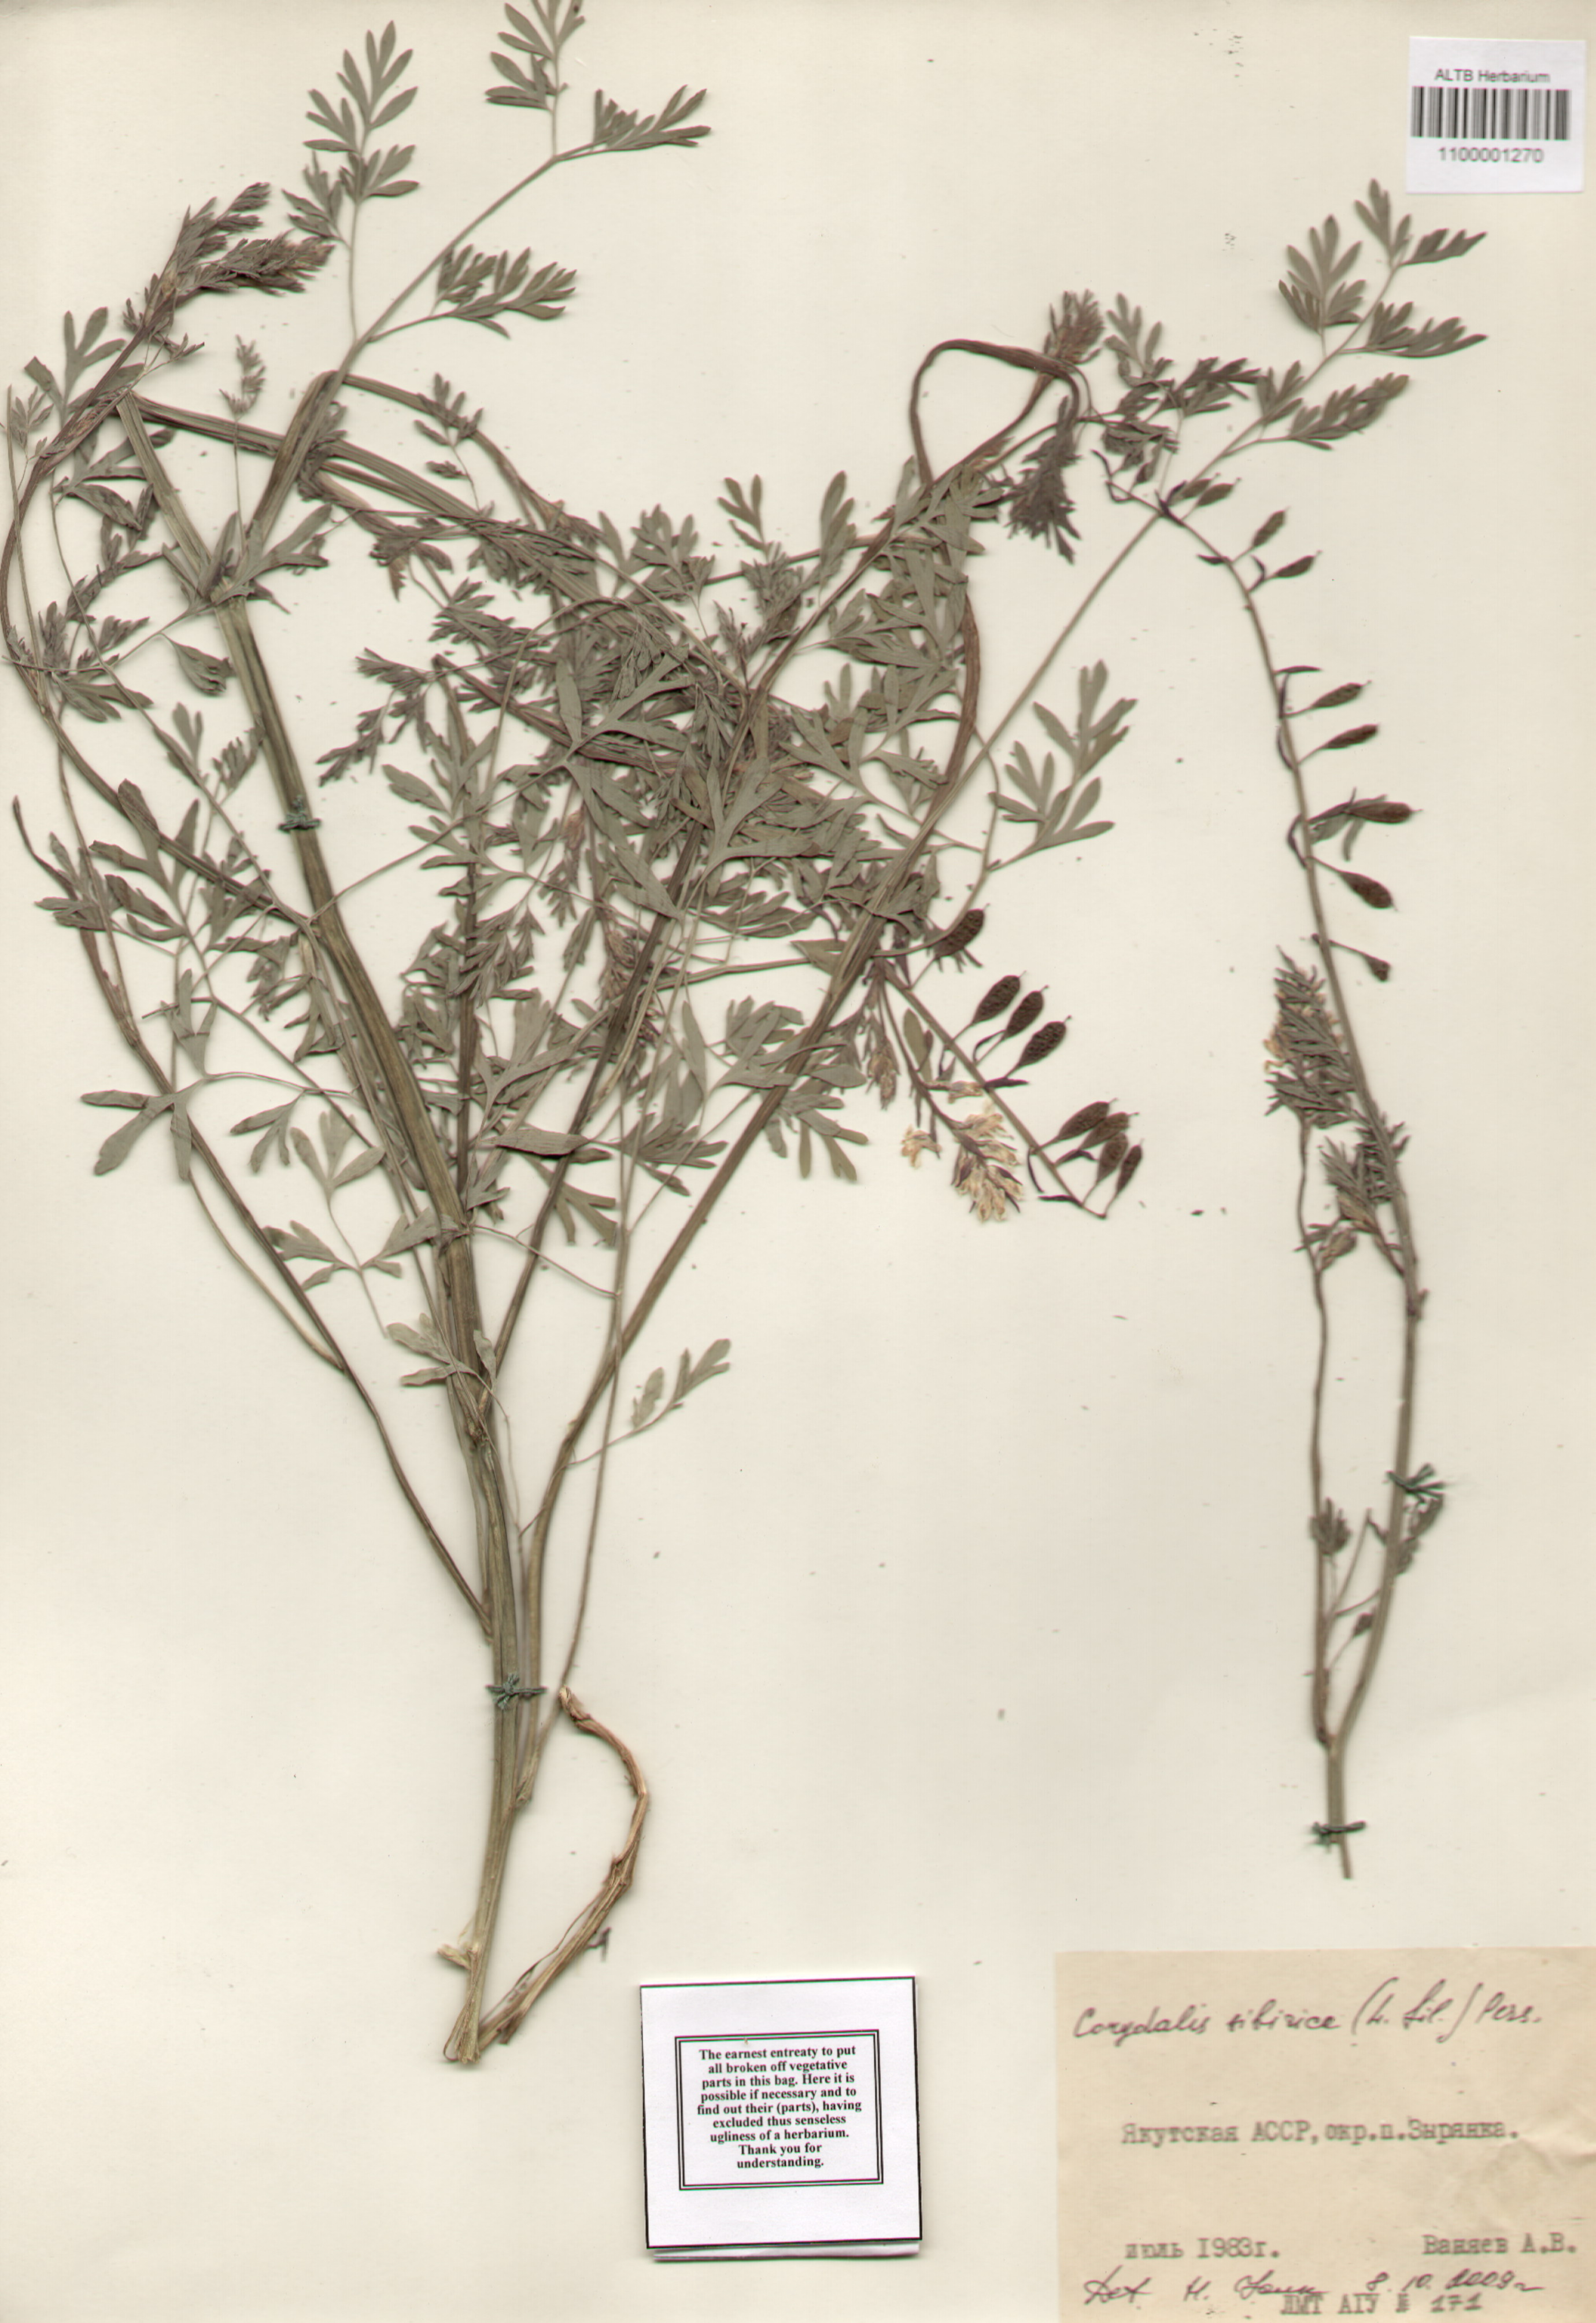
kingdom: Plantae
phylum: Tracheophyta
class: Magnoliopsida
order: Ranunculales
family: Papaveraceae
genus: Corydalis
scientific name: Corydalis sibirica
